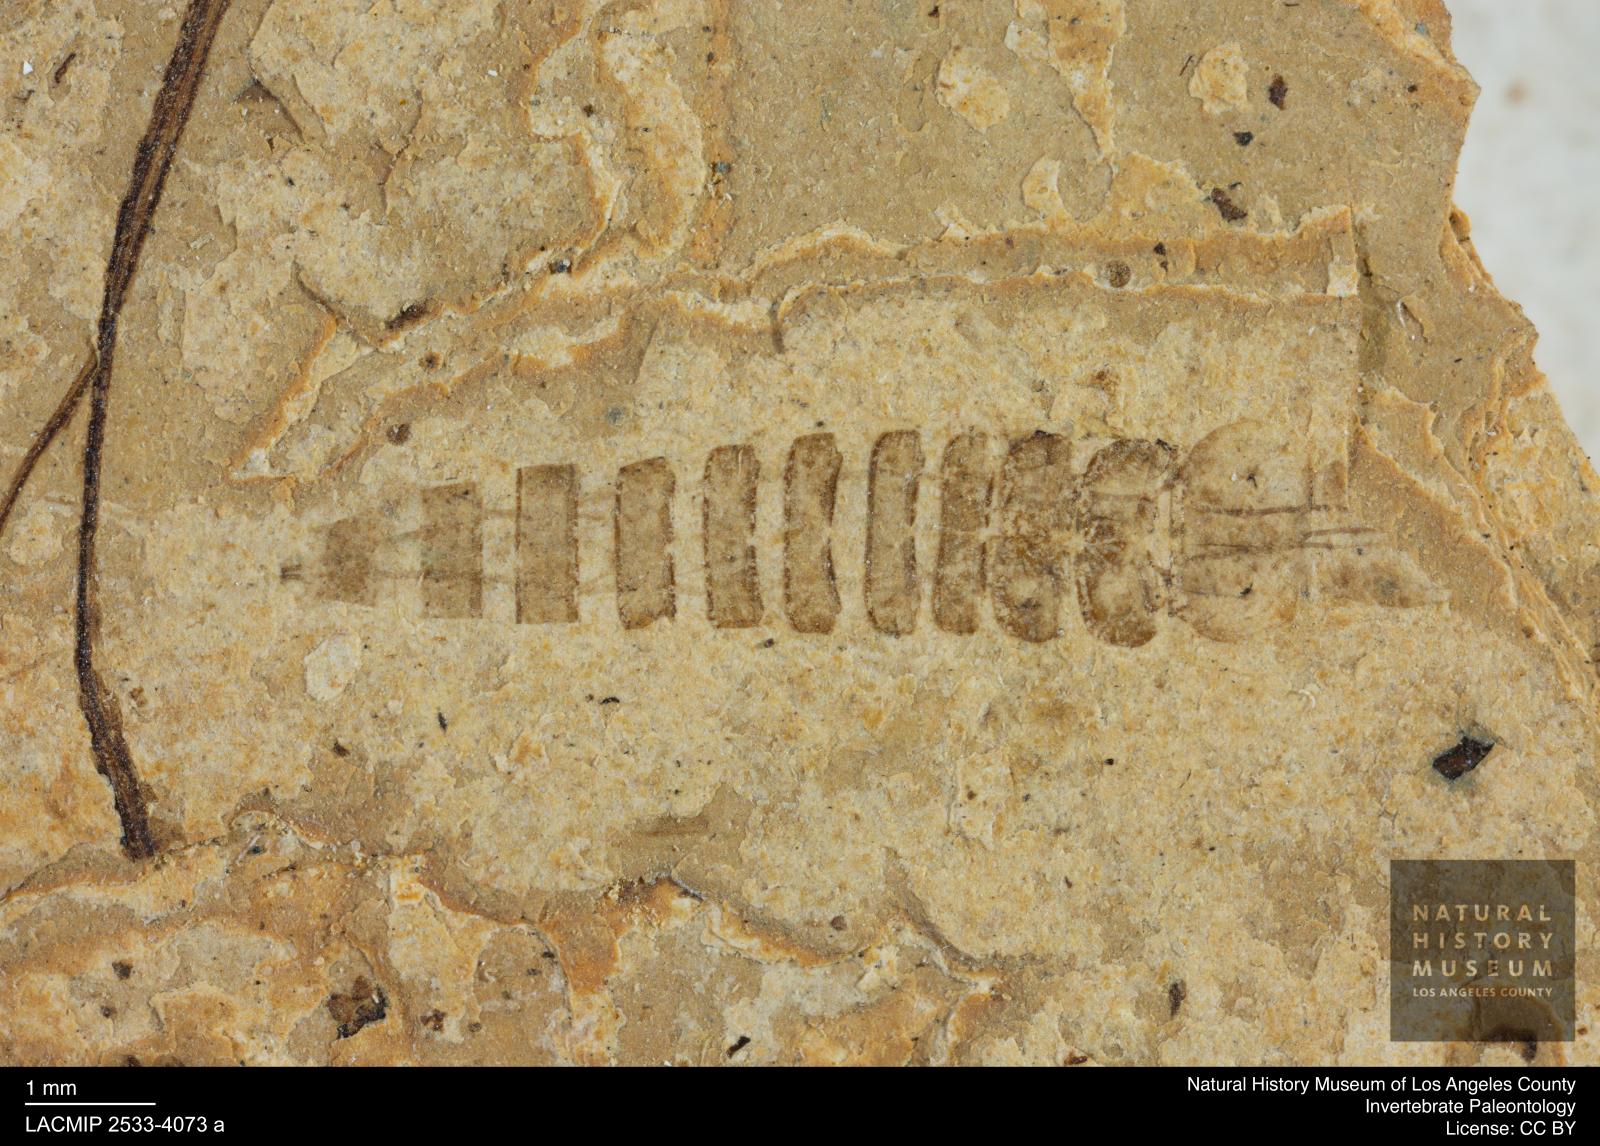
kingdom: Animalia
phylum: Arthropoda
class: Insecta
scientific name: Insecta
